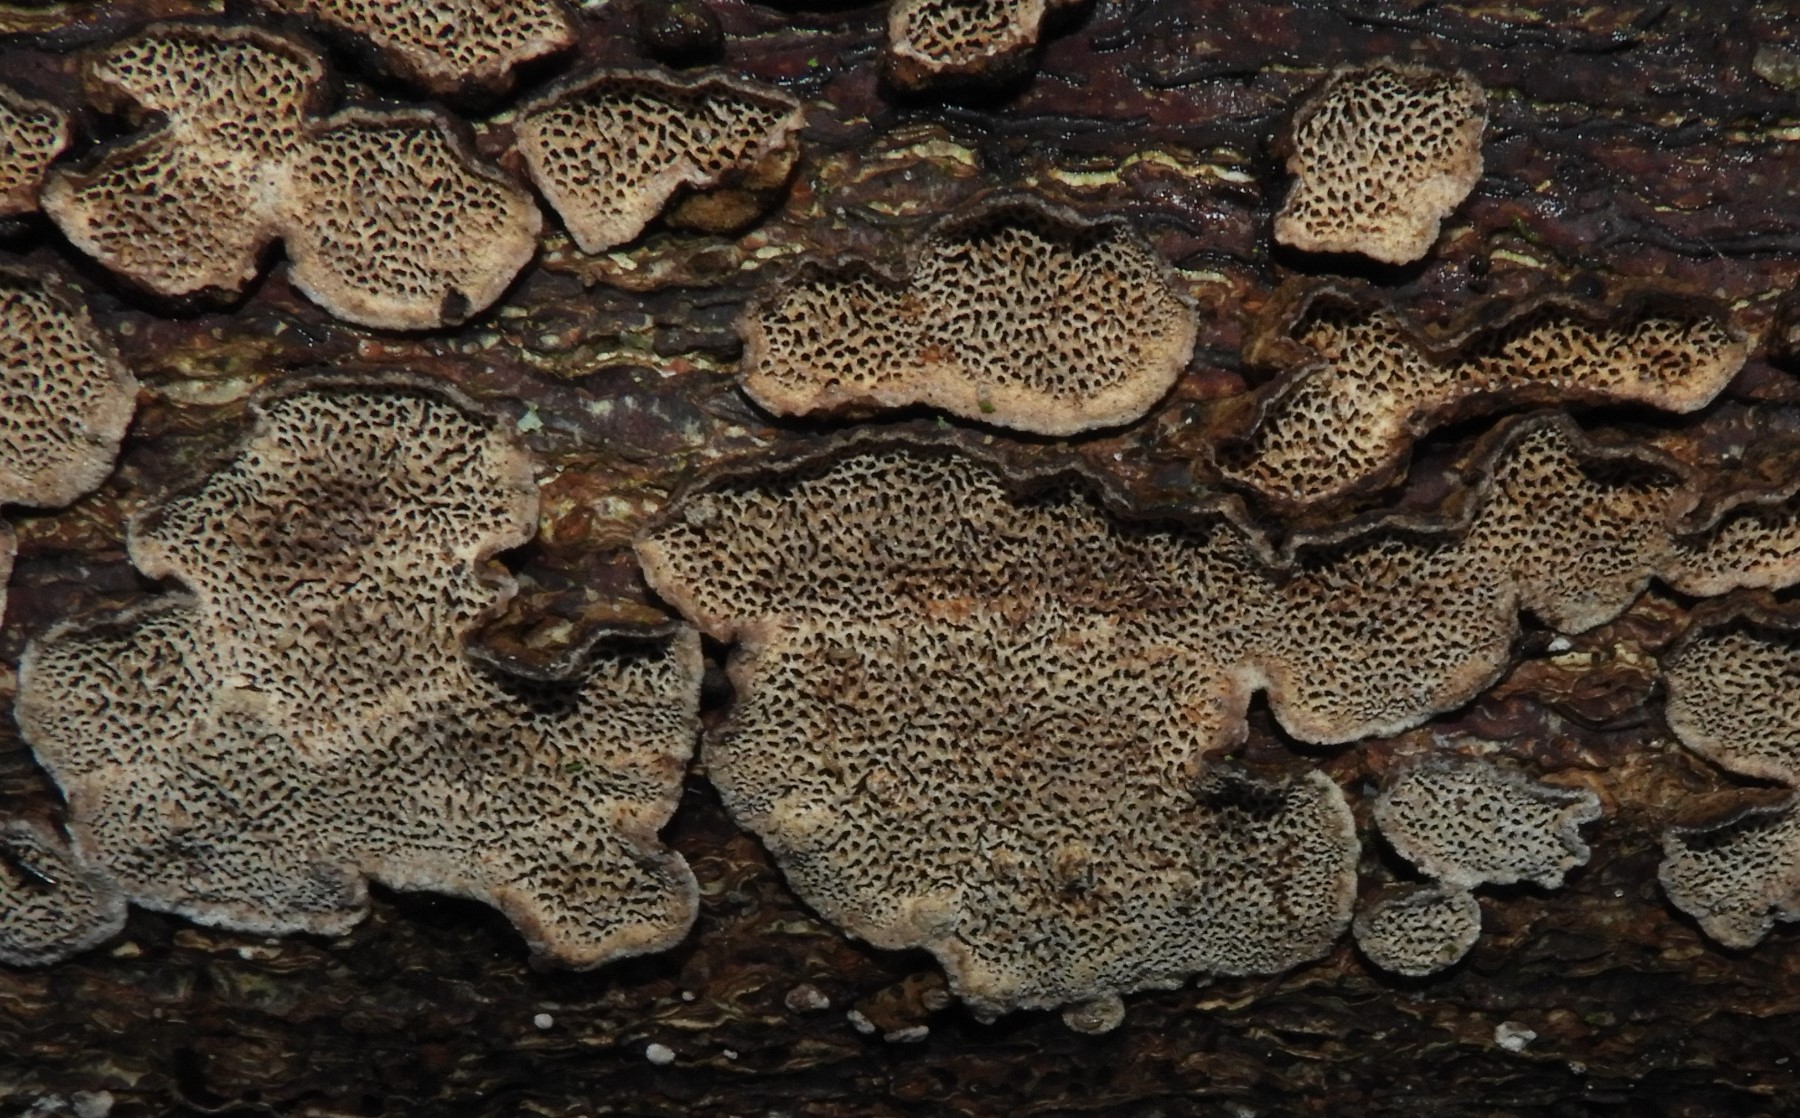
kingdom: Fungi
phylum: Basidiomycota
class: Agaricomycetes
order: Polyporales
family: Polyporaceae
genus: Podofomes
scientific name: Podofomes mollis
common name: blød begporesvamp
